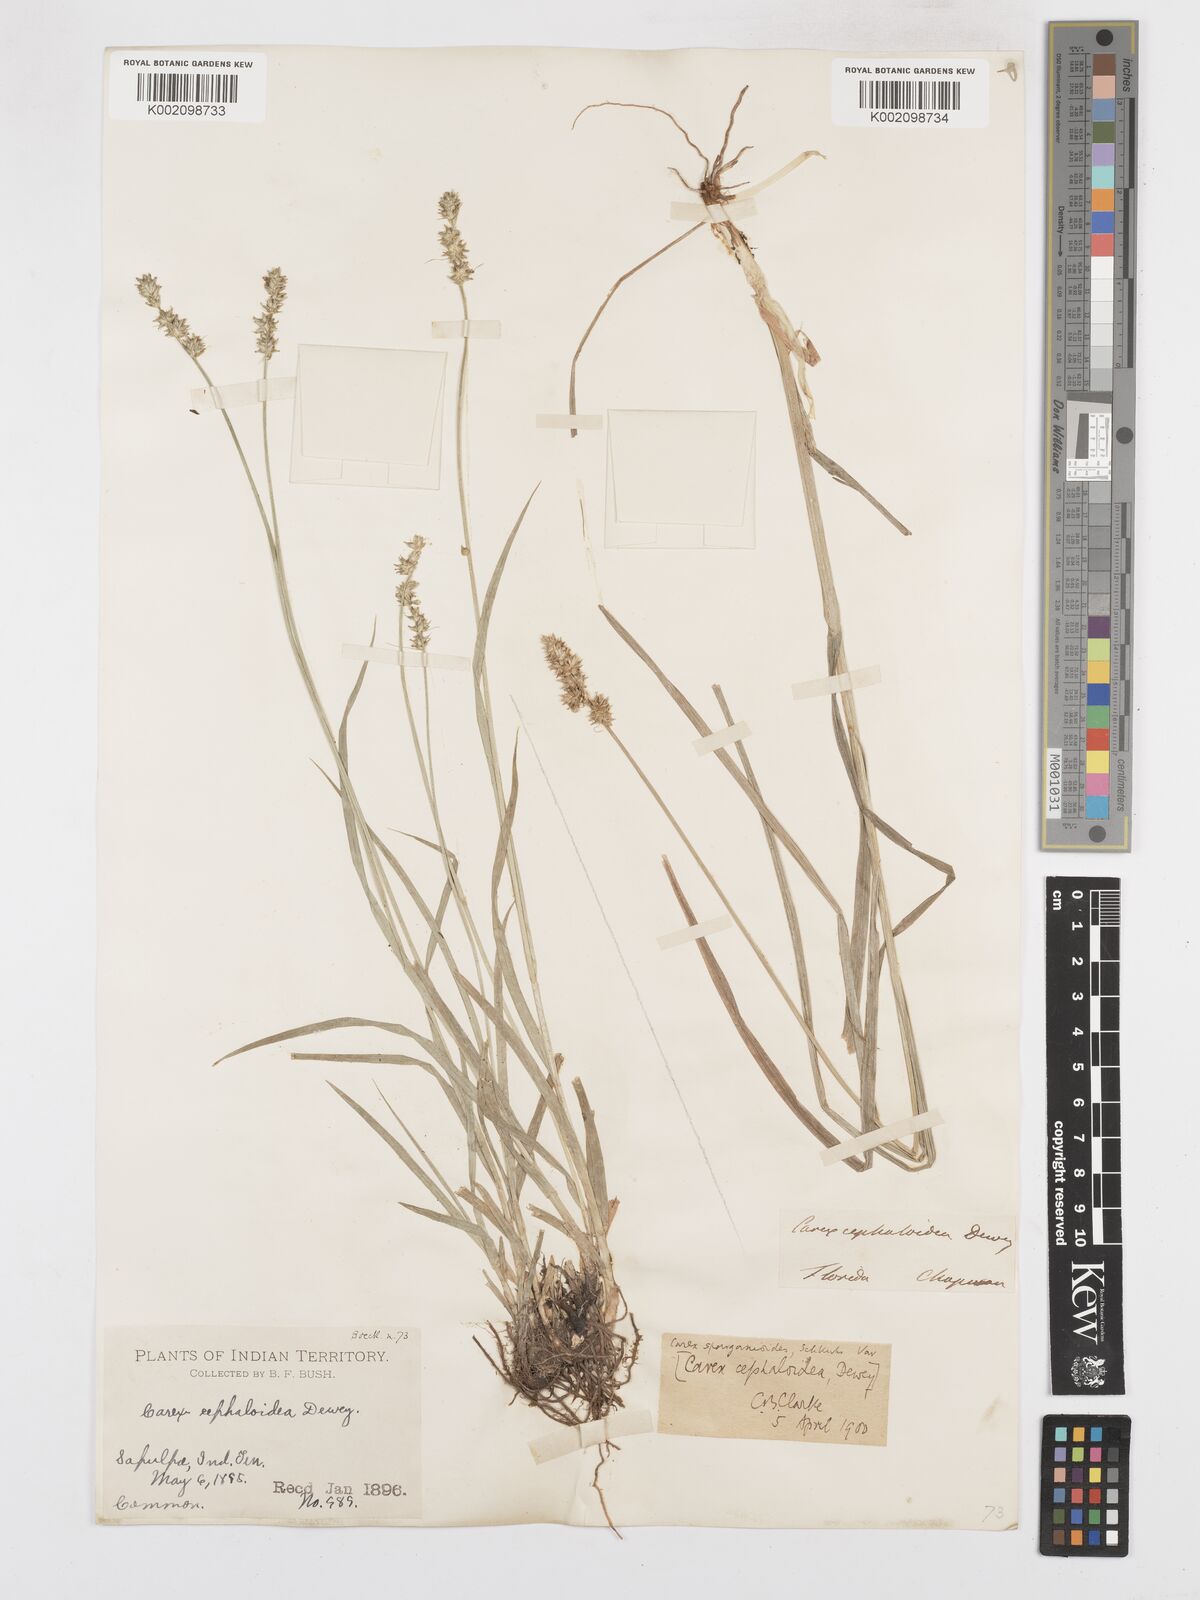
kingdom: Plantae
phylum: Tracheophyta
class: Liliopsida
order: Poales
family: Cyperaceae
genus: Carex
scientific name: Carex cephaloidea
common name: Thin-leaved sedge
